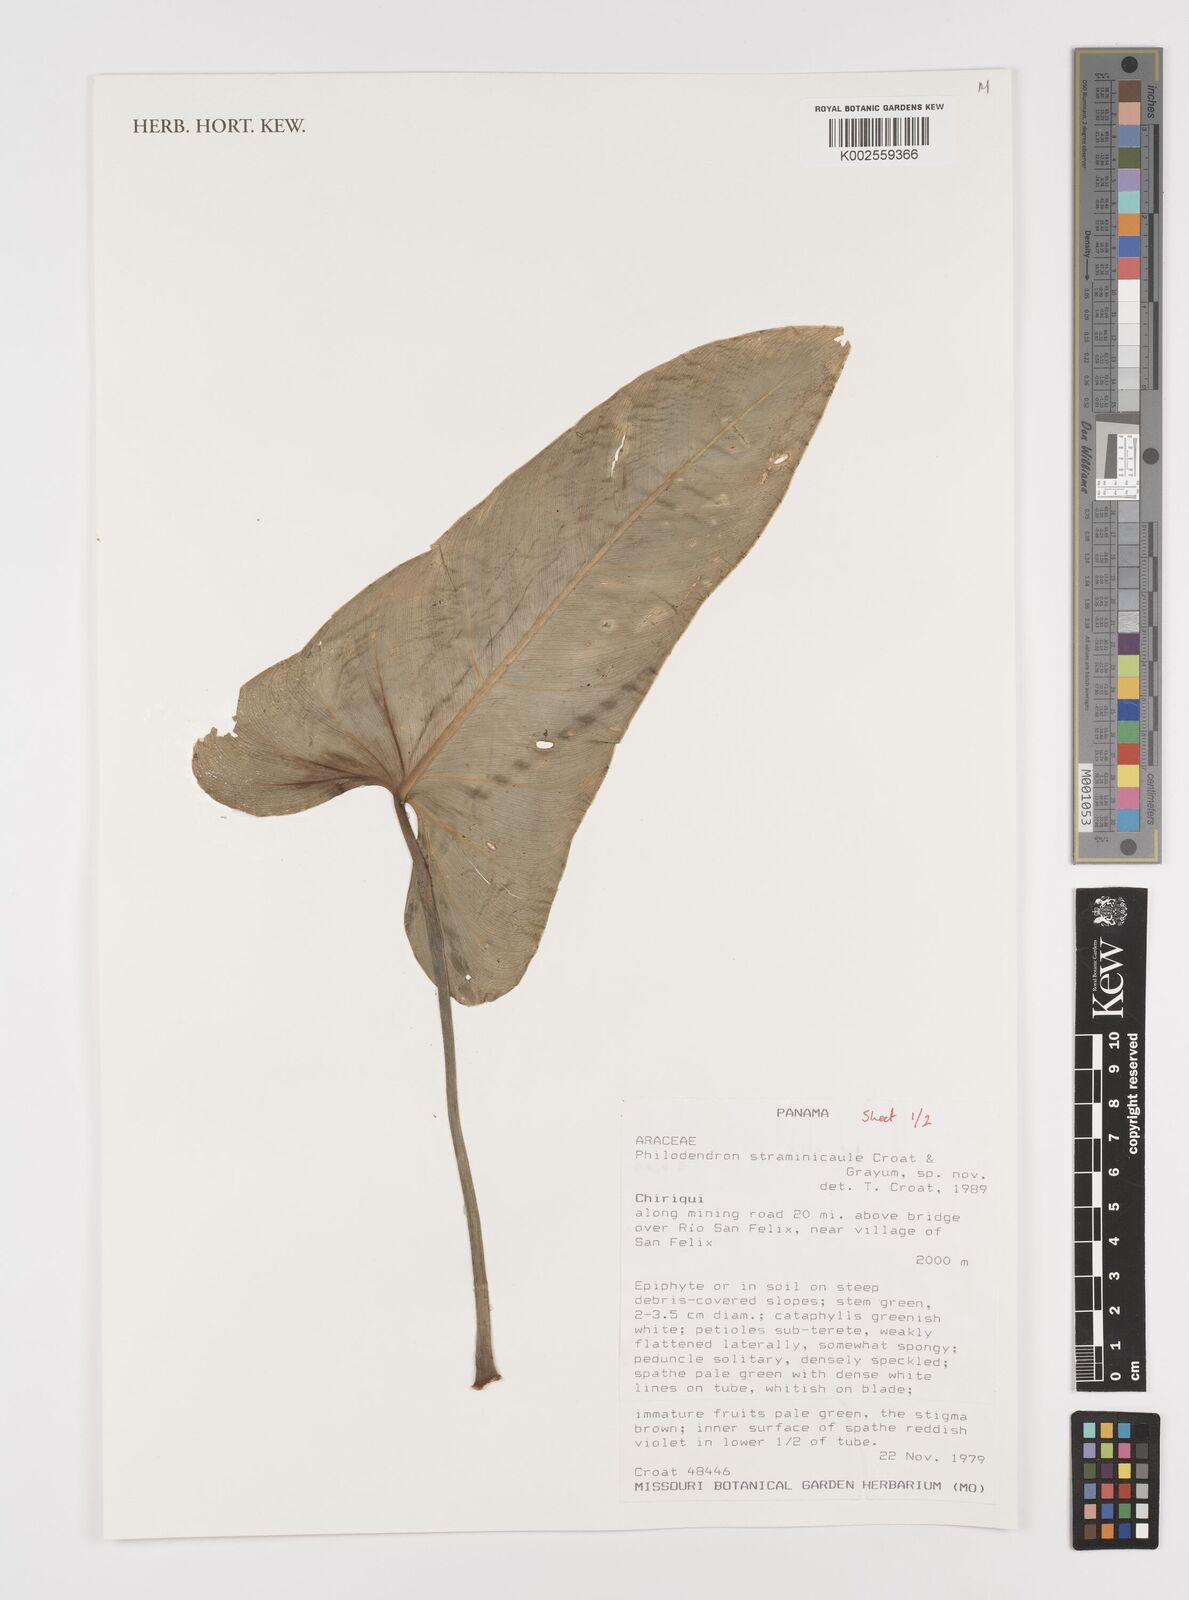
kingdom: Plantae
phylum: Tracheophyta
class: Liliopsida
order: Alismatales
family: Araceae
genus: Philodendron
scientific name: Philodendron straminicaule
